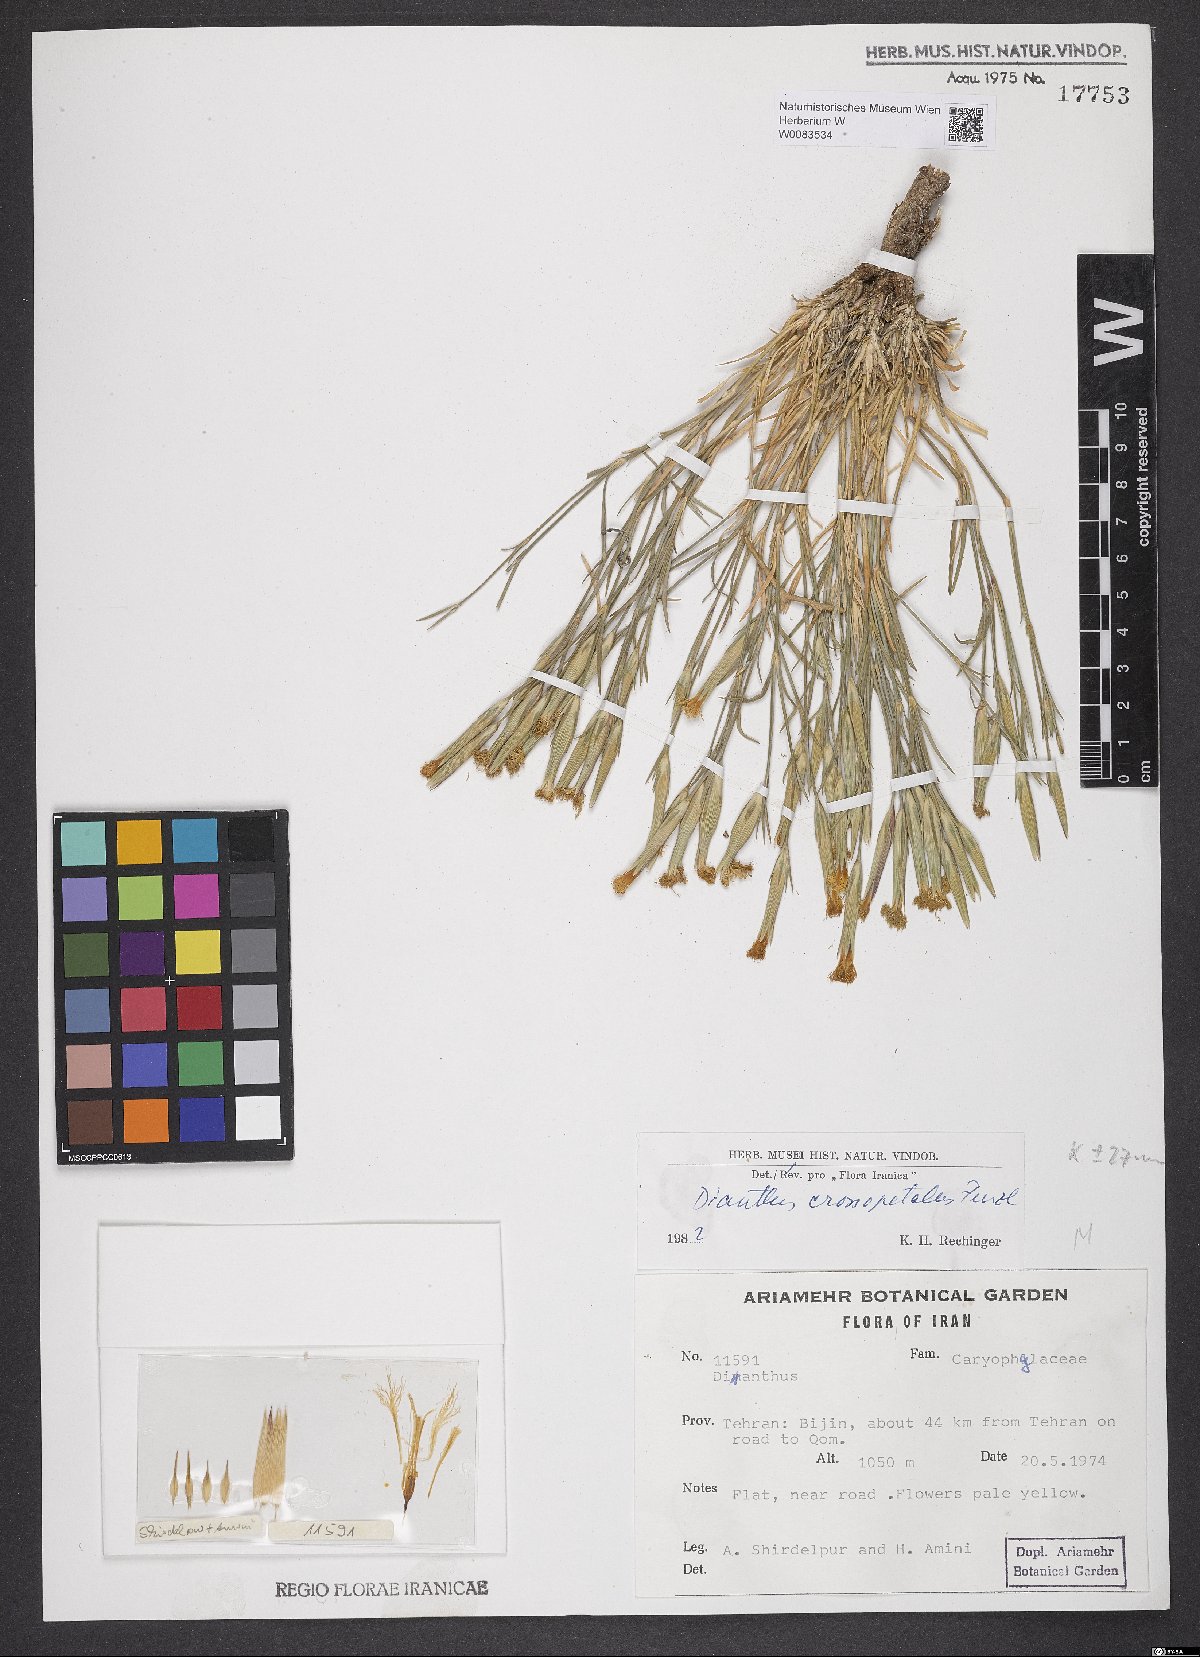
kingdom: Plantae
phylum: Tracheophyta
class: Magnoliopsida
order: Caryophyllales
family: Caryophyllaceae
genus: Dianthus
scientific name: Dianthus crossopetalus
